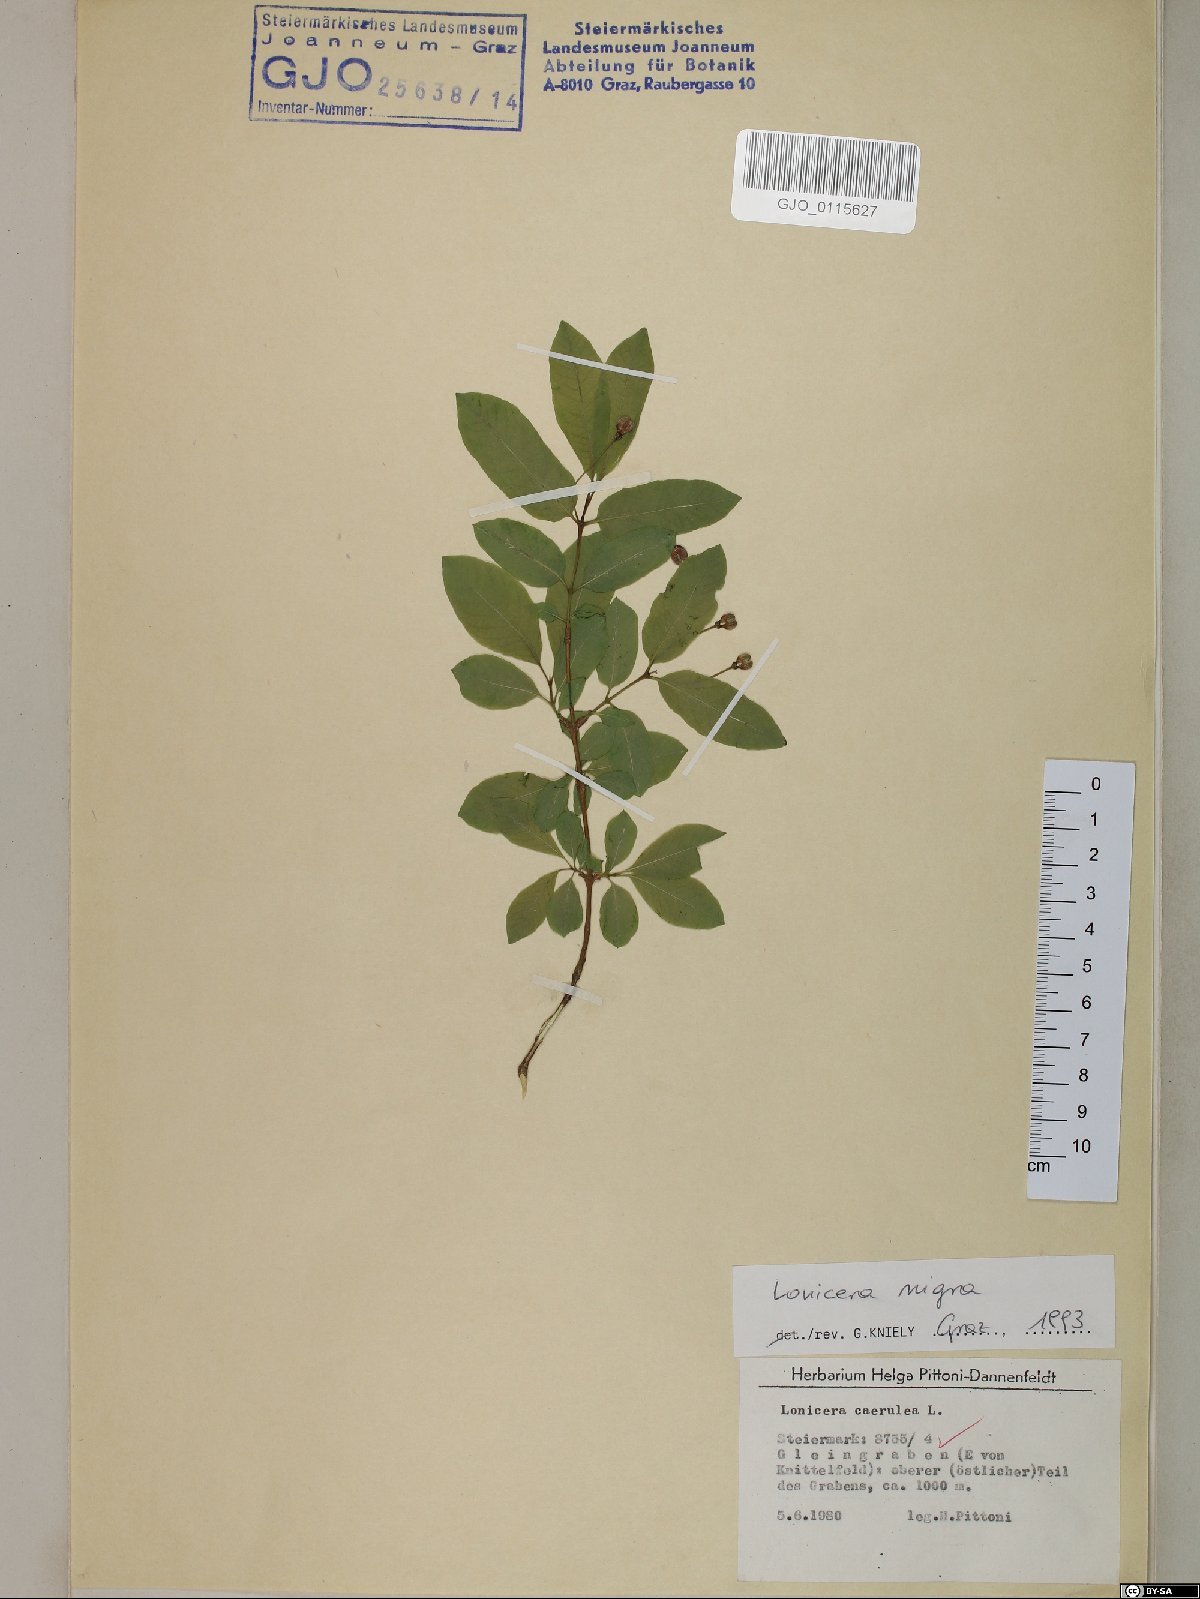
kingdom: Plantae
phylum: Tracheophyta
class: Magnoliopsida
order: Dipsacales
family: Caprifoliaceae
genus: Lonicera
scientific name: Lonicera nigra
